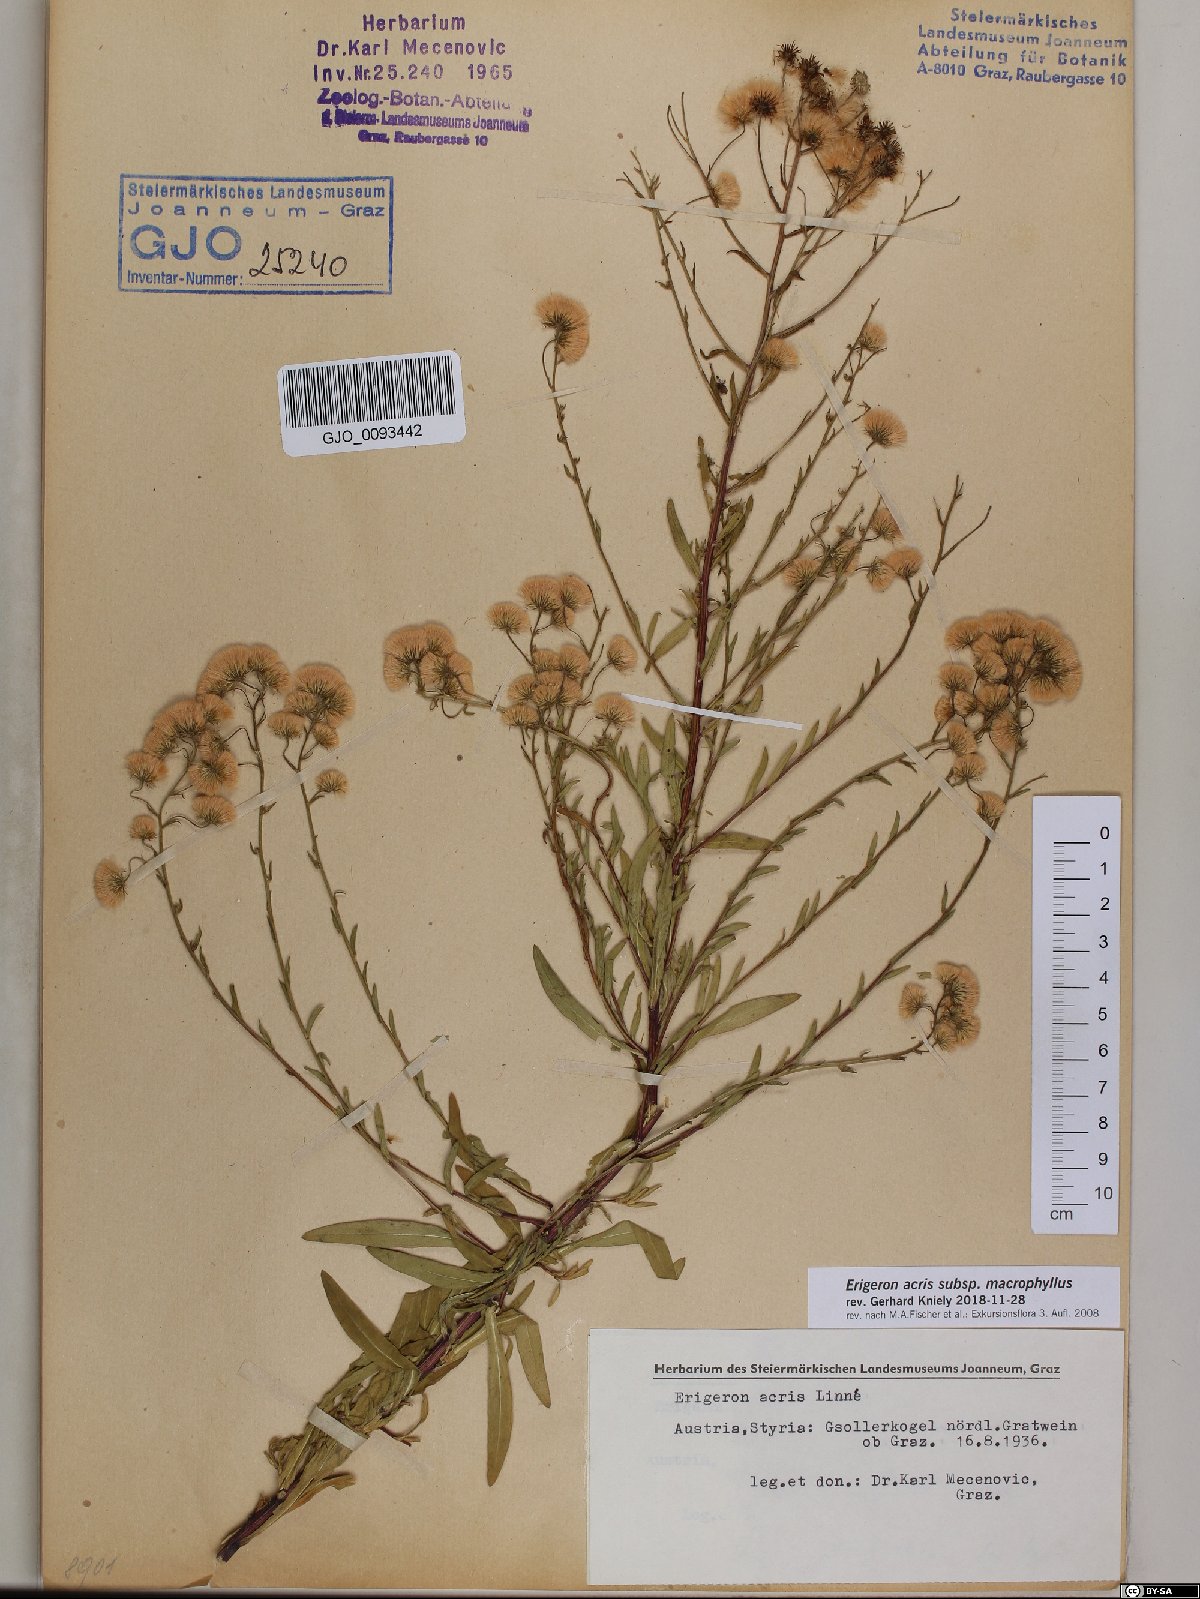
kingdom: Plantae
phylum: Tracheophyta
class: Magnoliopsida
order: Asterales
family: Asteraceae
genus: Erigeron
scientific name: Erigeron macrophyllus
